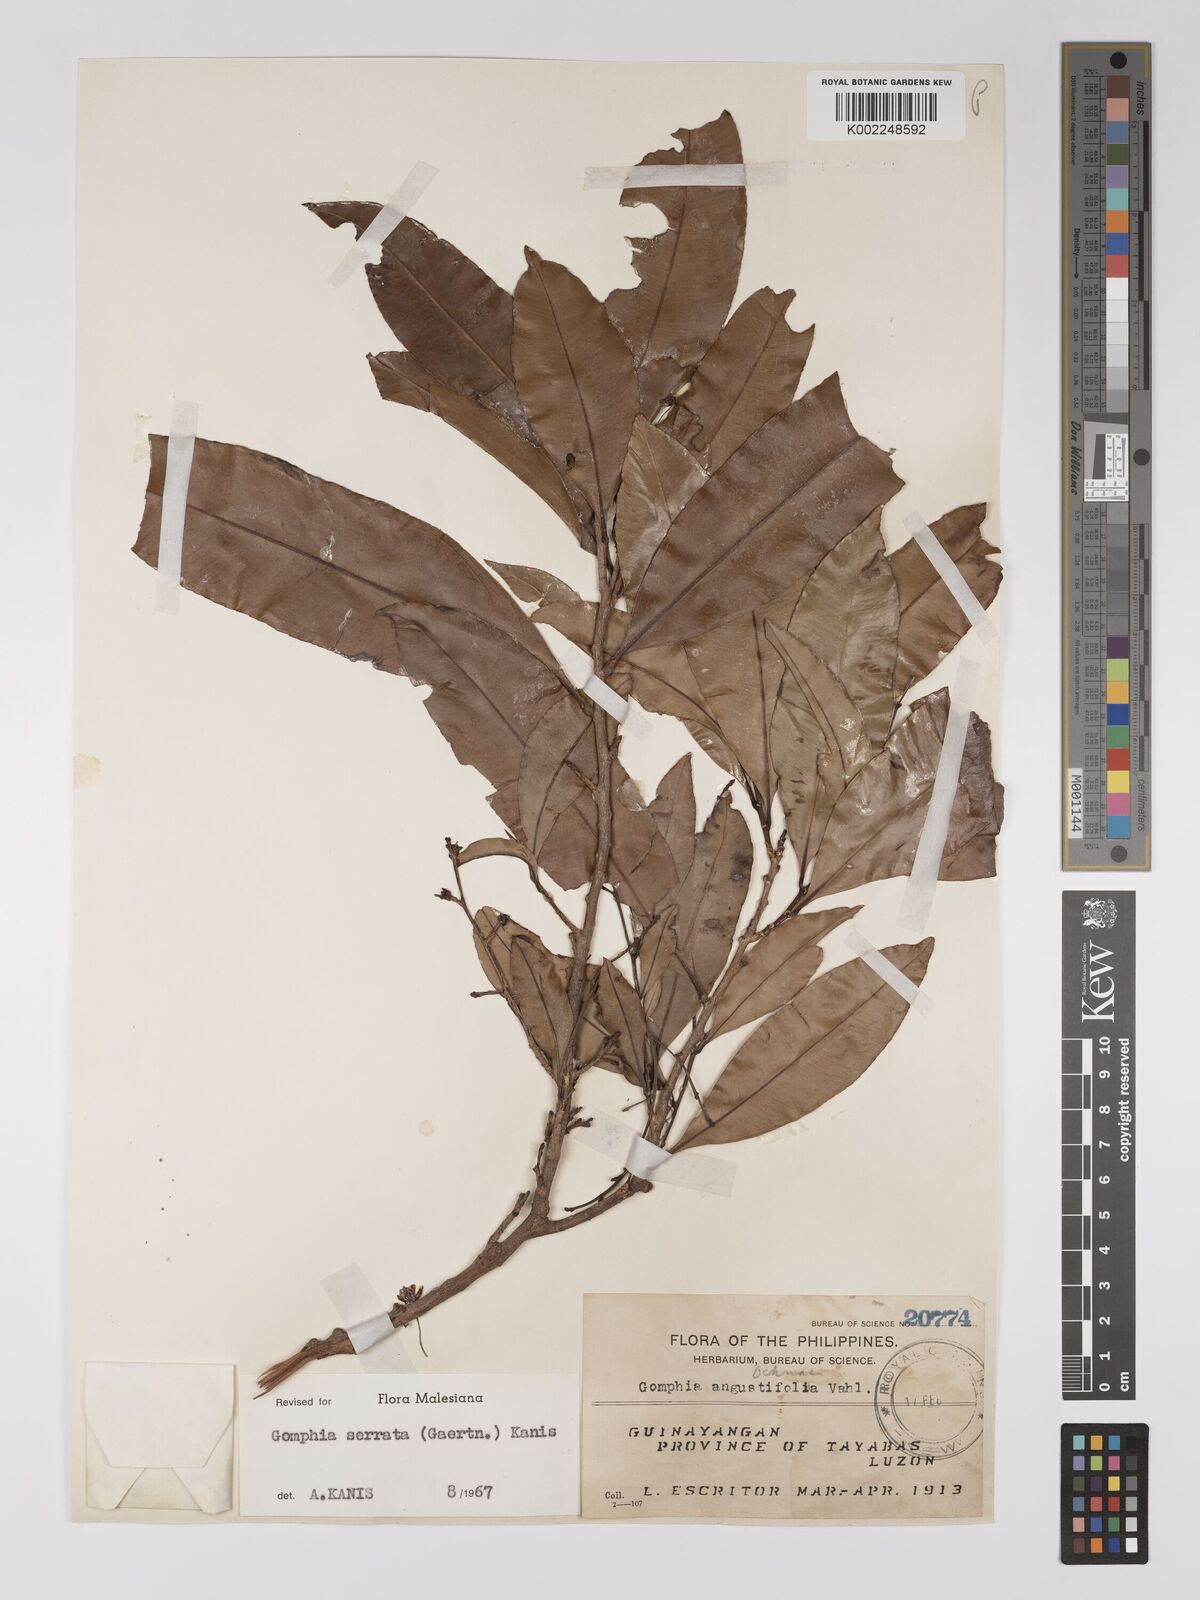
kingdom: Plantae
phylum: Tracheophyta
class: Magnoliopsida
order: Malpighiales
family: Ochnaceae
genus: Gomphia
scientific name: Gomphia serrata
